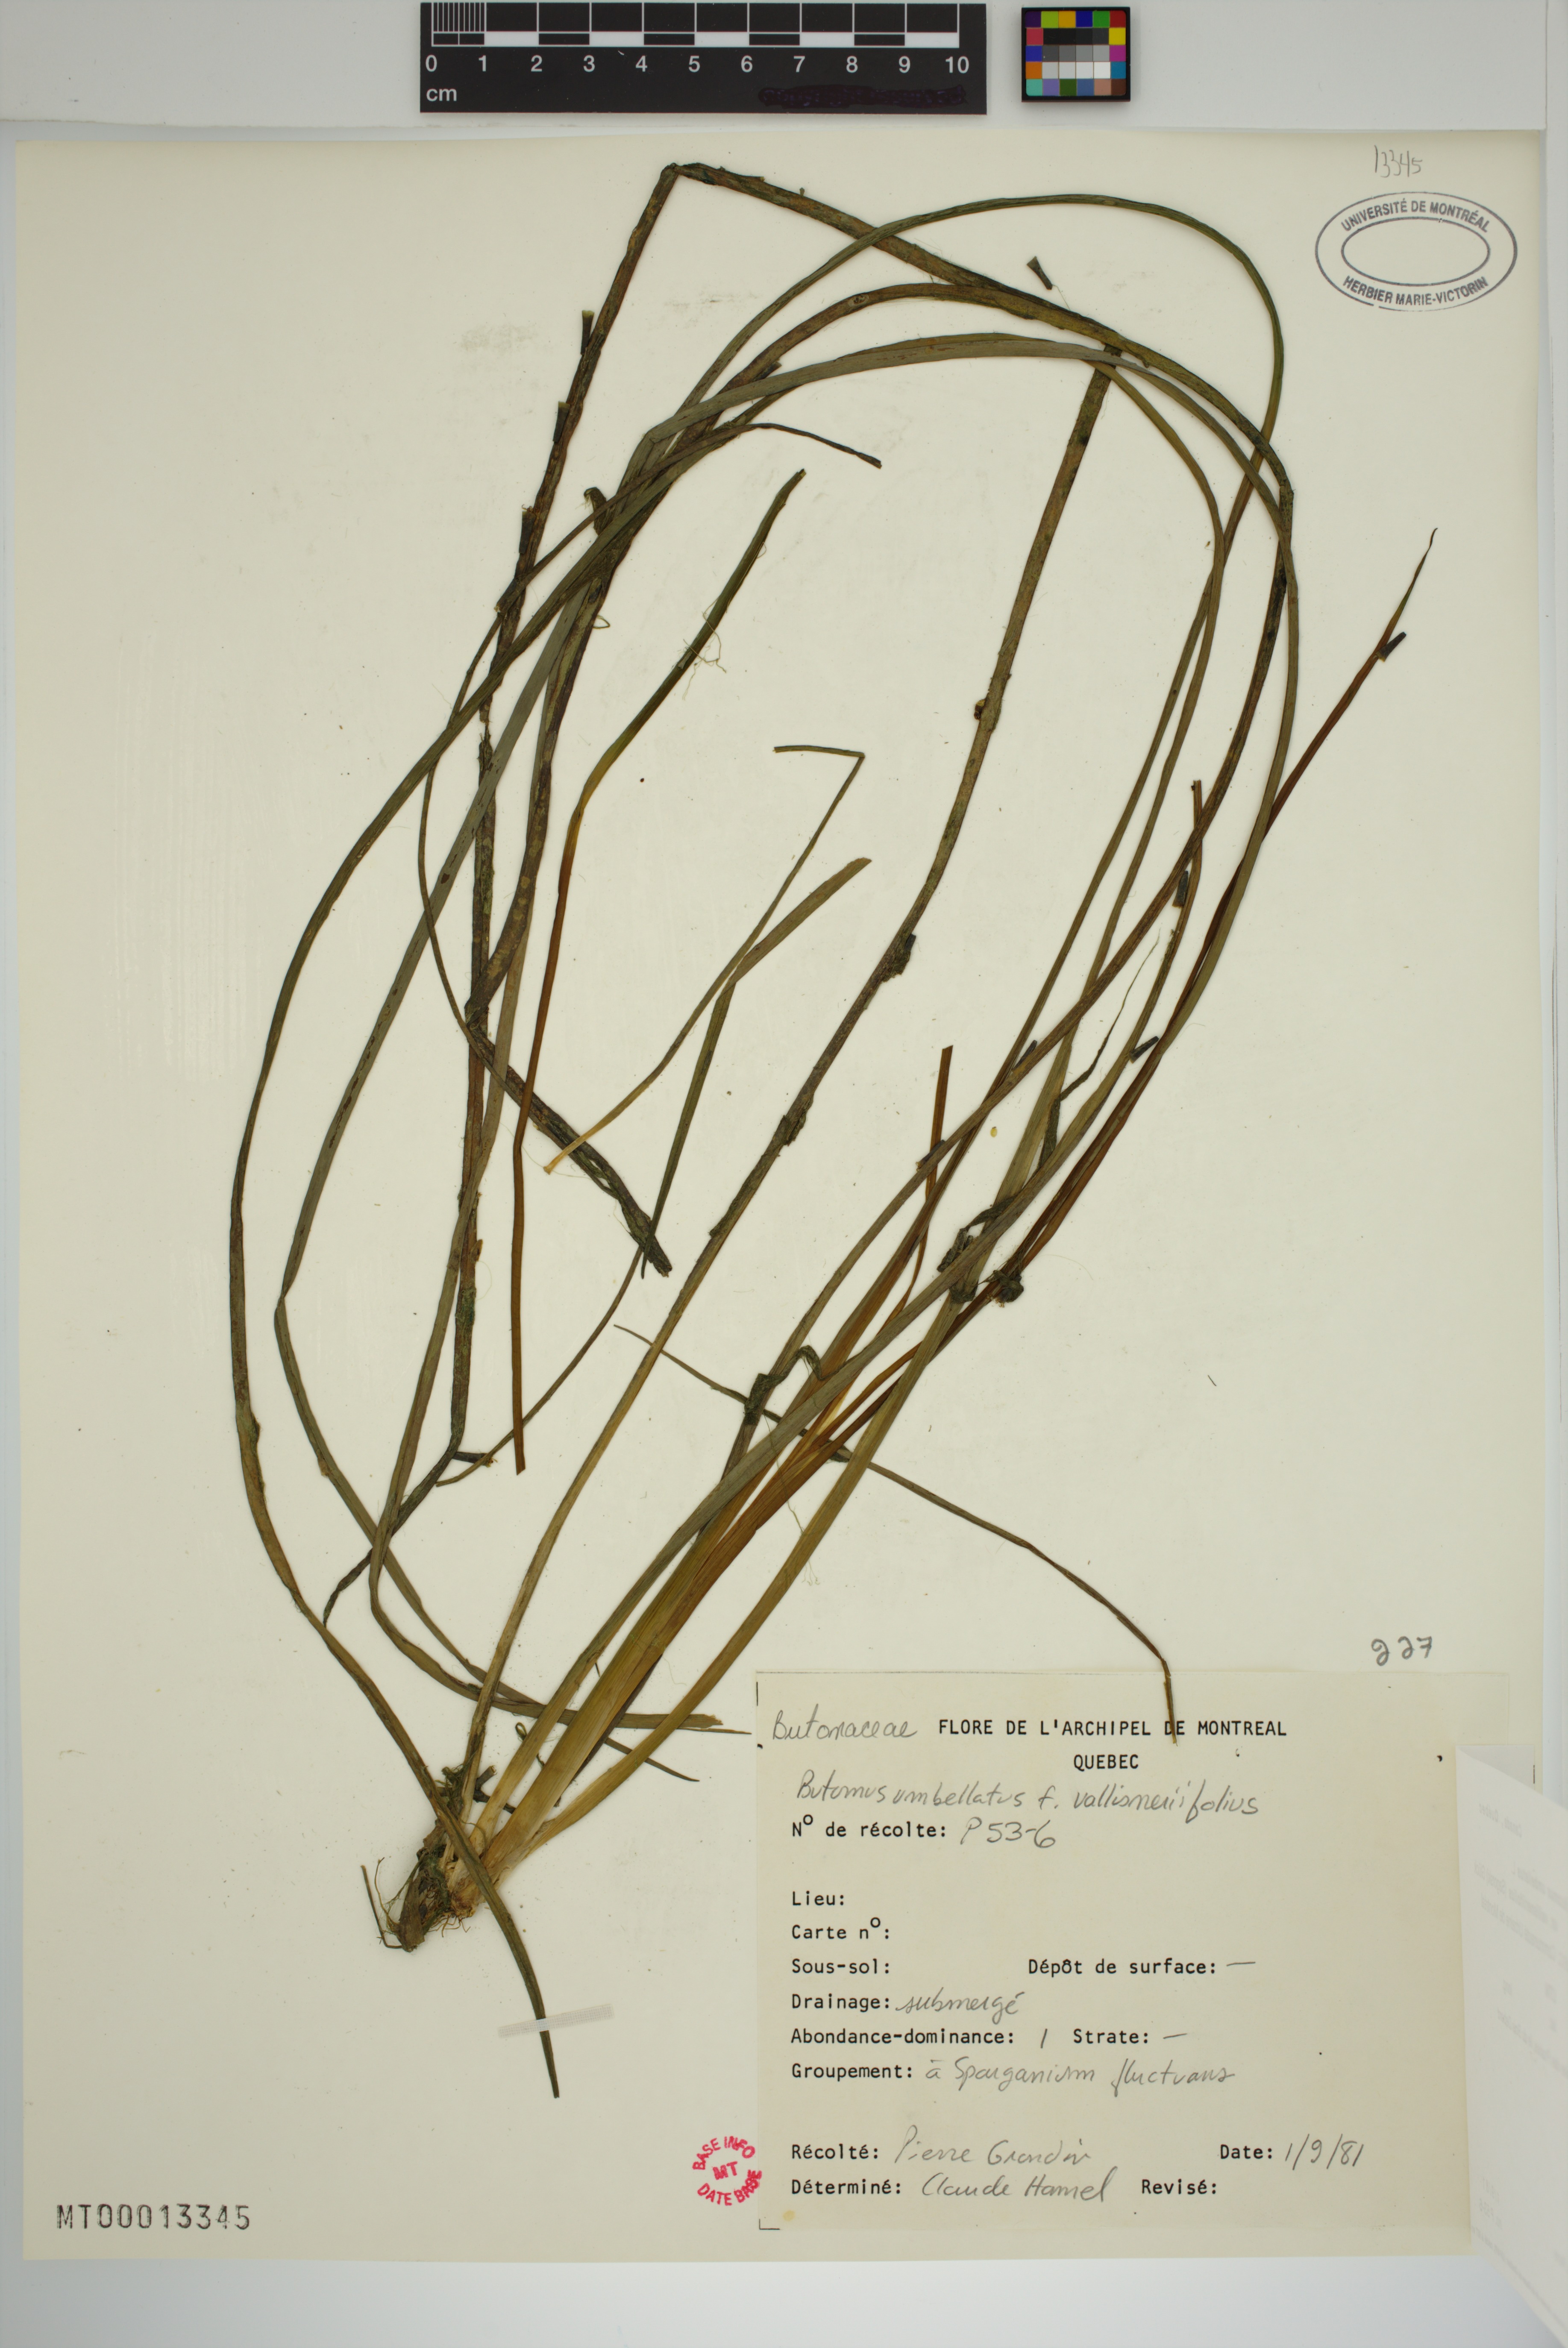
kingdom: Plantae
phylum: Tracheophyta
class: Liliopsida
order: Alismatales
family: Butomaceae
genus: Butomus
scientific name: Butomus umbellatus
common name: Flowering-rush
